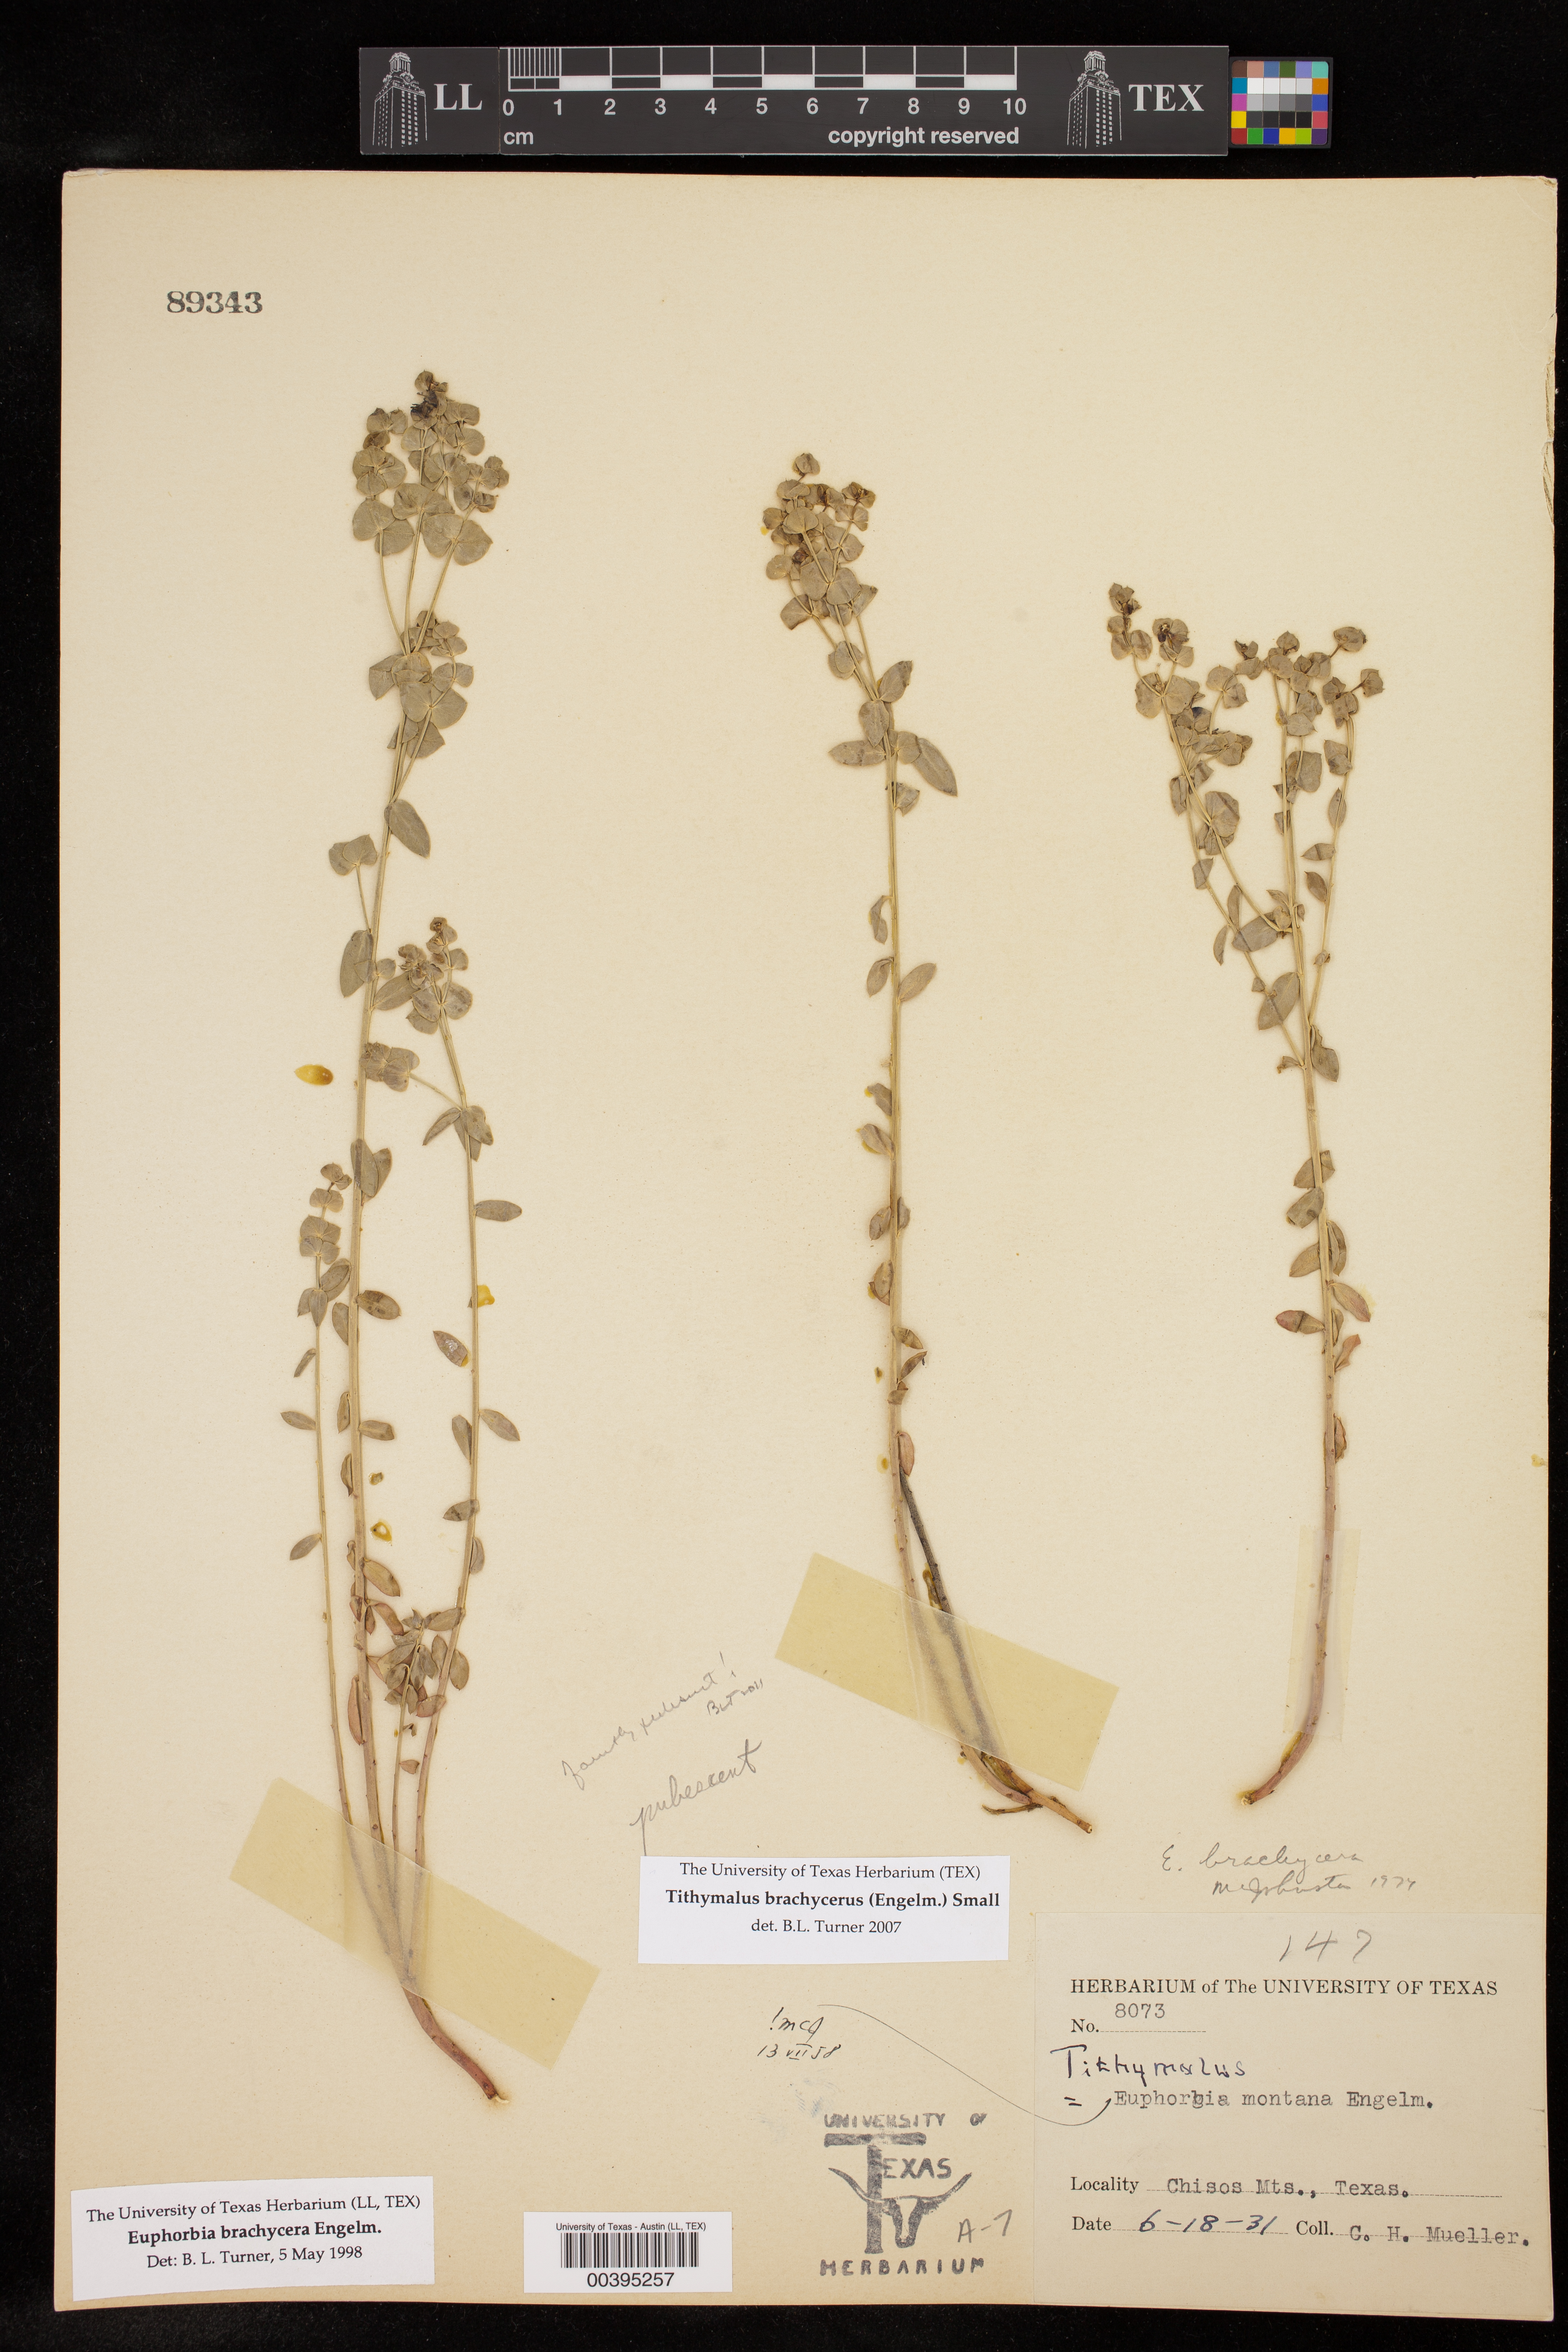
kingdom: Plantae
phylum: Tracheophyta
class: Magnoliopsida
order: Malpighiales
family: Euphorbiaceae
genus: Euphorbia
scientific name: Euphorbia brachycera
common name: Shorthorn spurge
